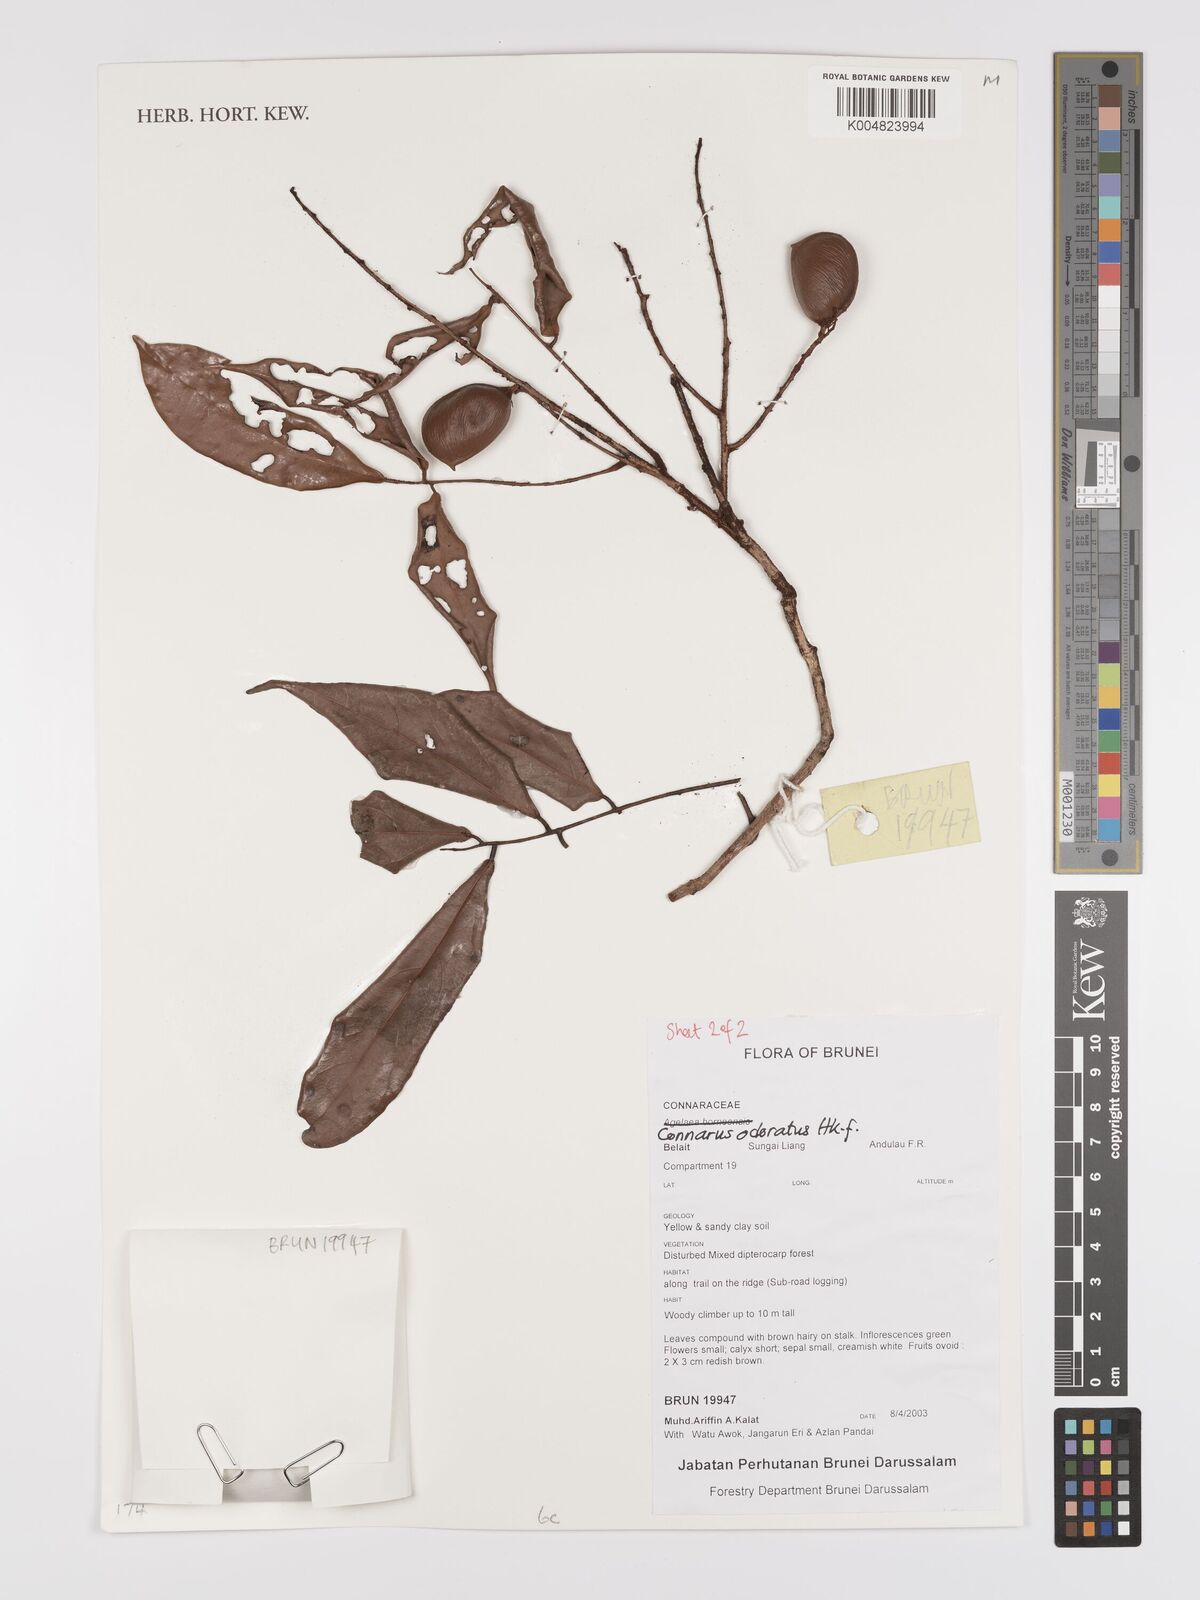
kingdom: Plantae
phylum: Tracheophyta
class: Magnoliopsida
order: Oxalidales
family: Connaraceae
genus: Connarus
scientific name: Connarus odoratus
